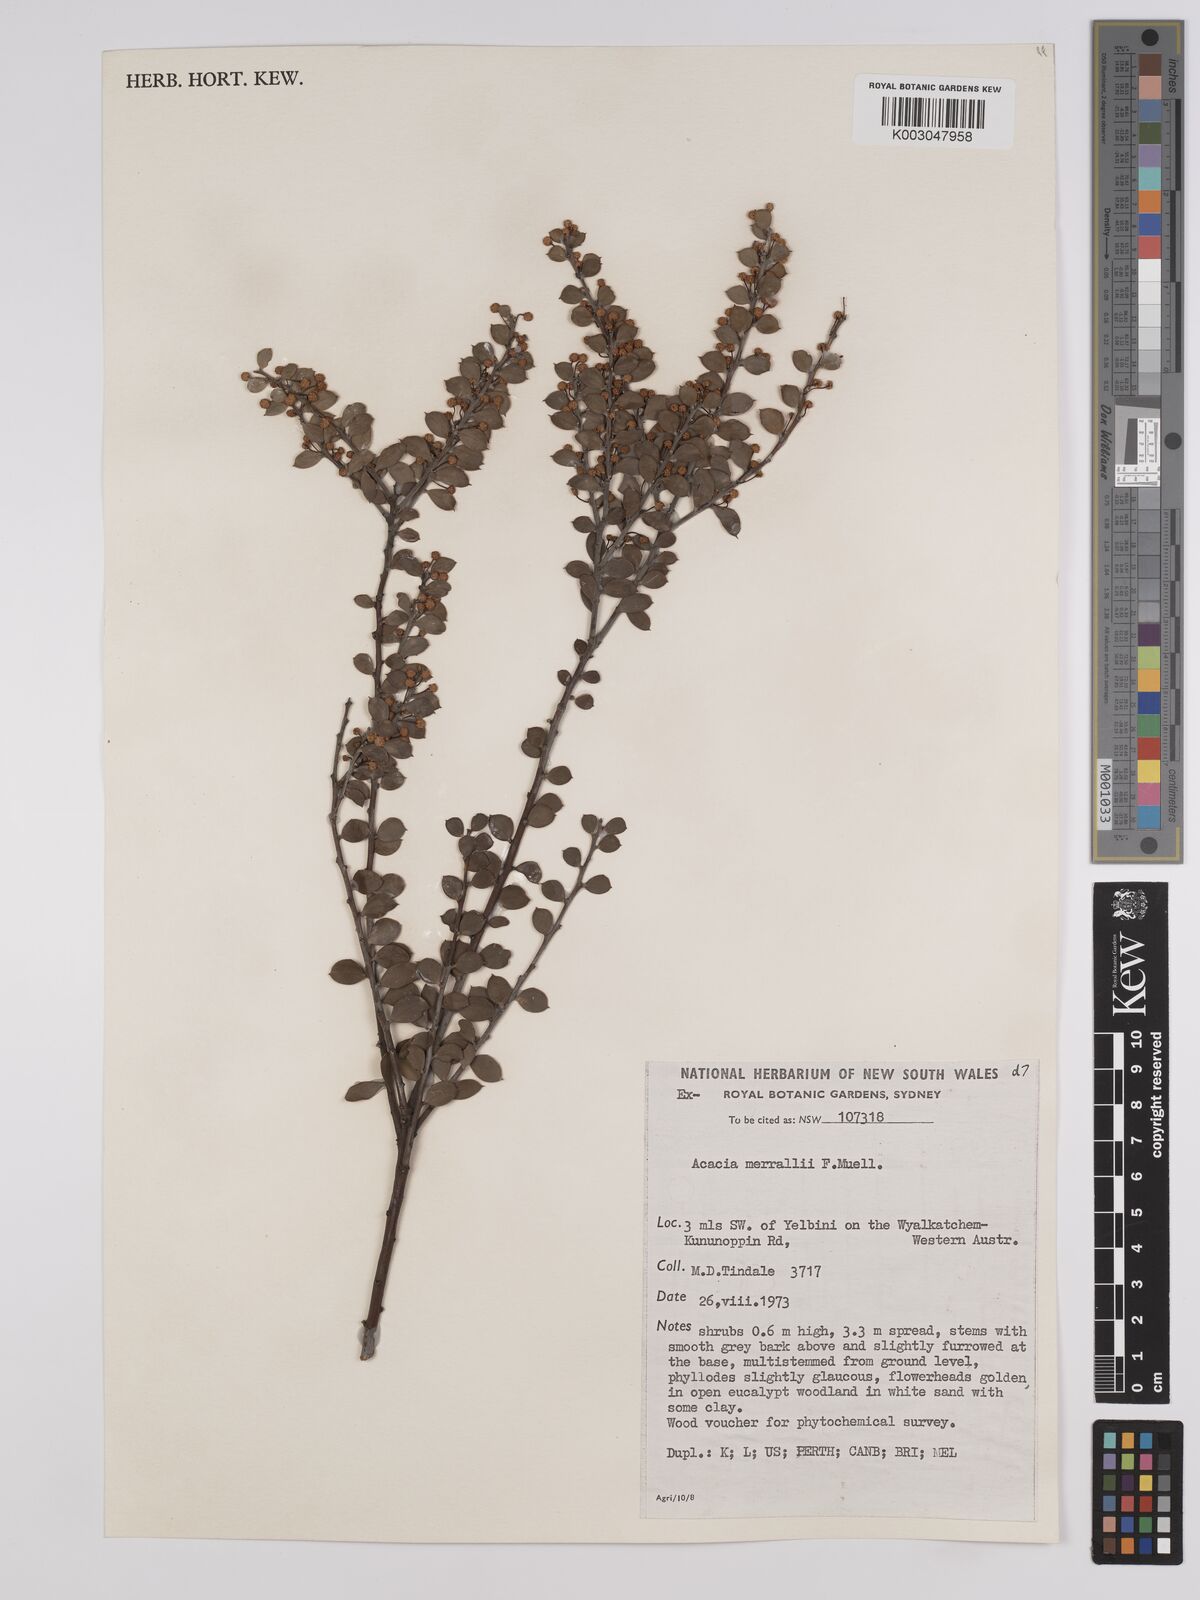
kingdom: Plantae
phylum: Tracheophyta
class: Magnoliopsida
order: Fabales
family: Fabaceae
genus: Acacia
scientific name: Acacia merrallii
